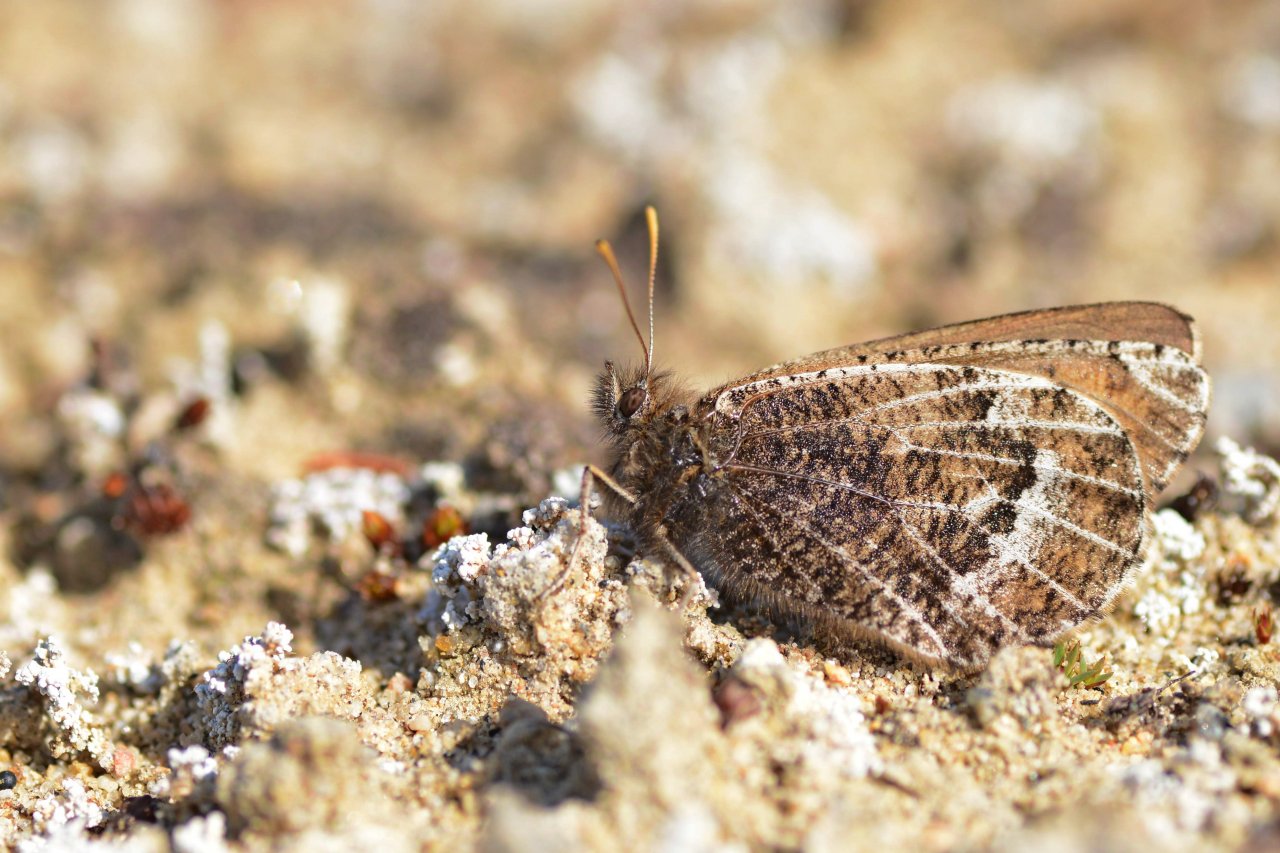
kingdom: Animalia
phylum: Arthropoda
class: Insecta
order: Lepidoptera
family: Nymphalidae
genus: Oeneis
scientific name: Oeneis bore
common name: White-veined Arctic
